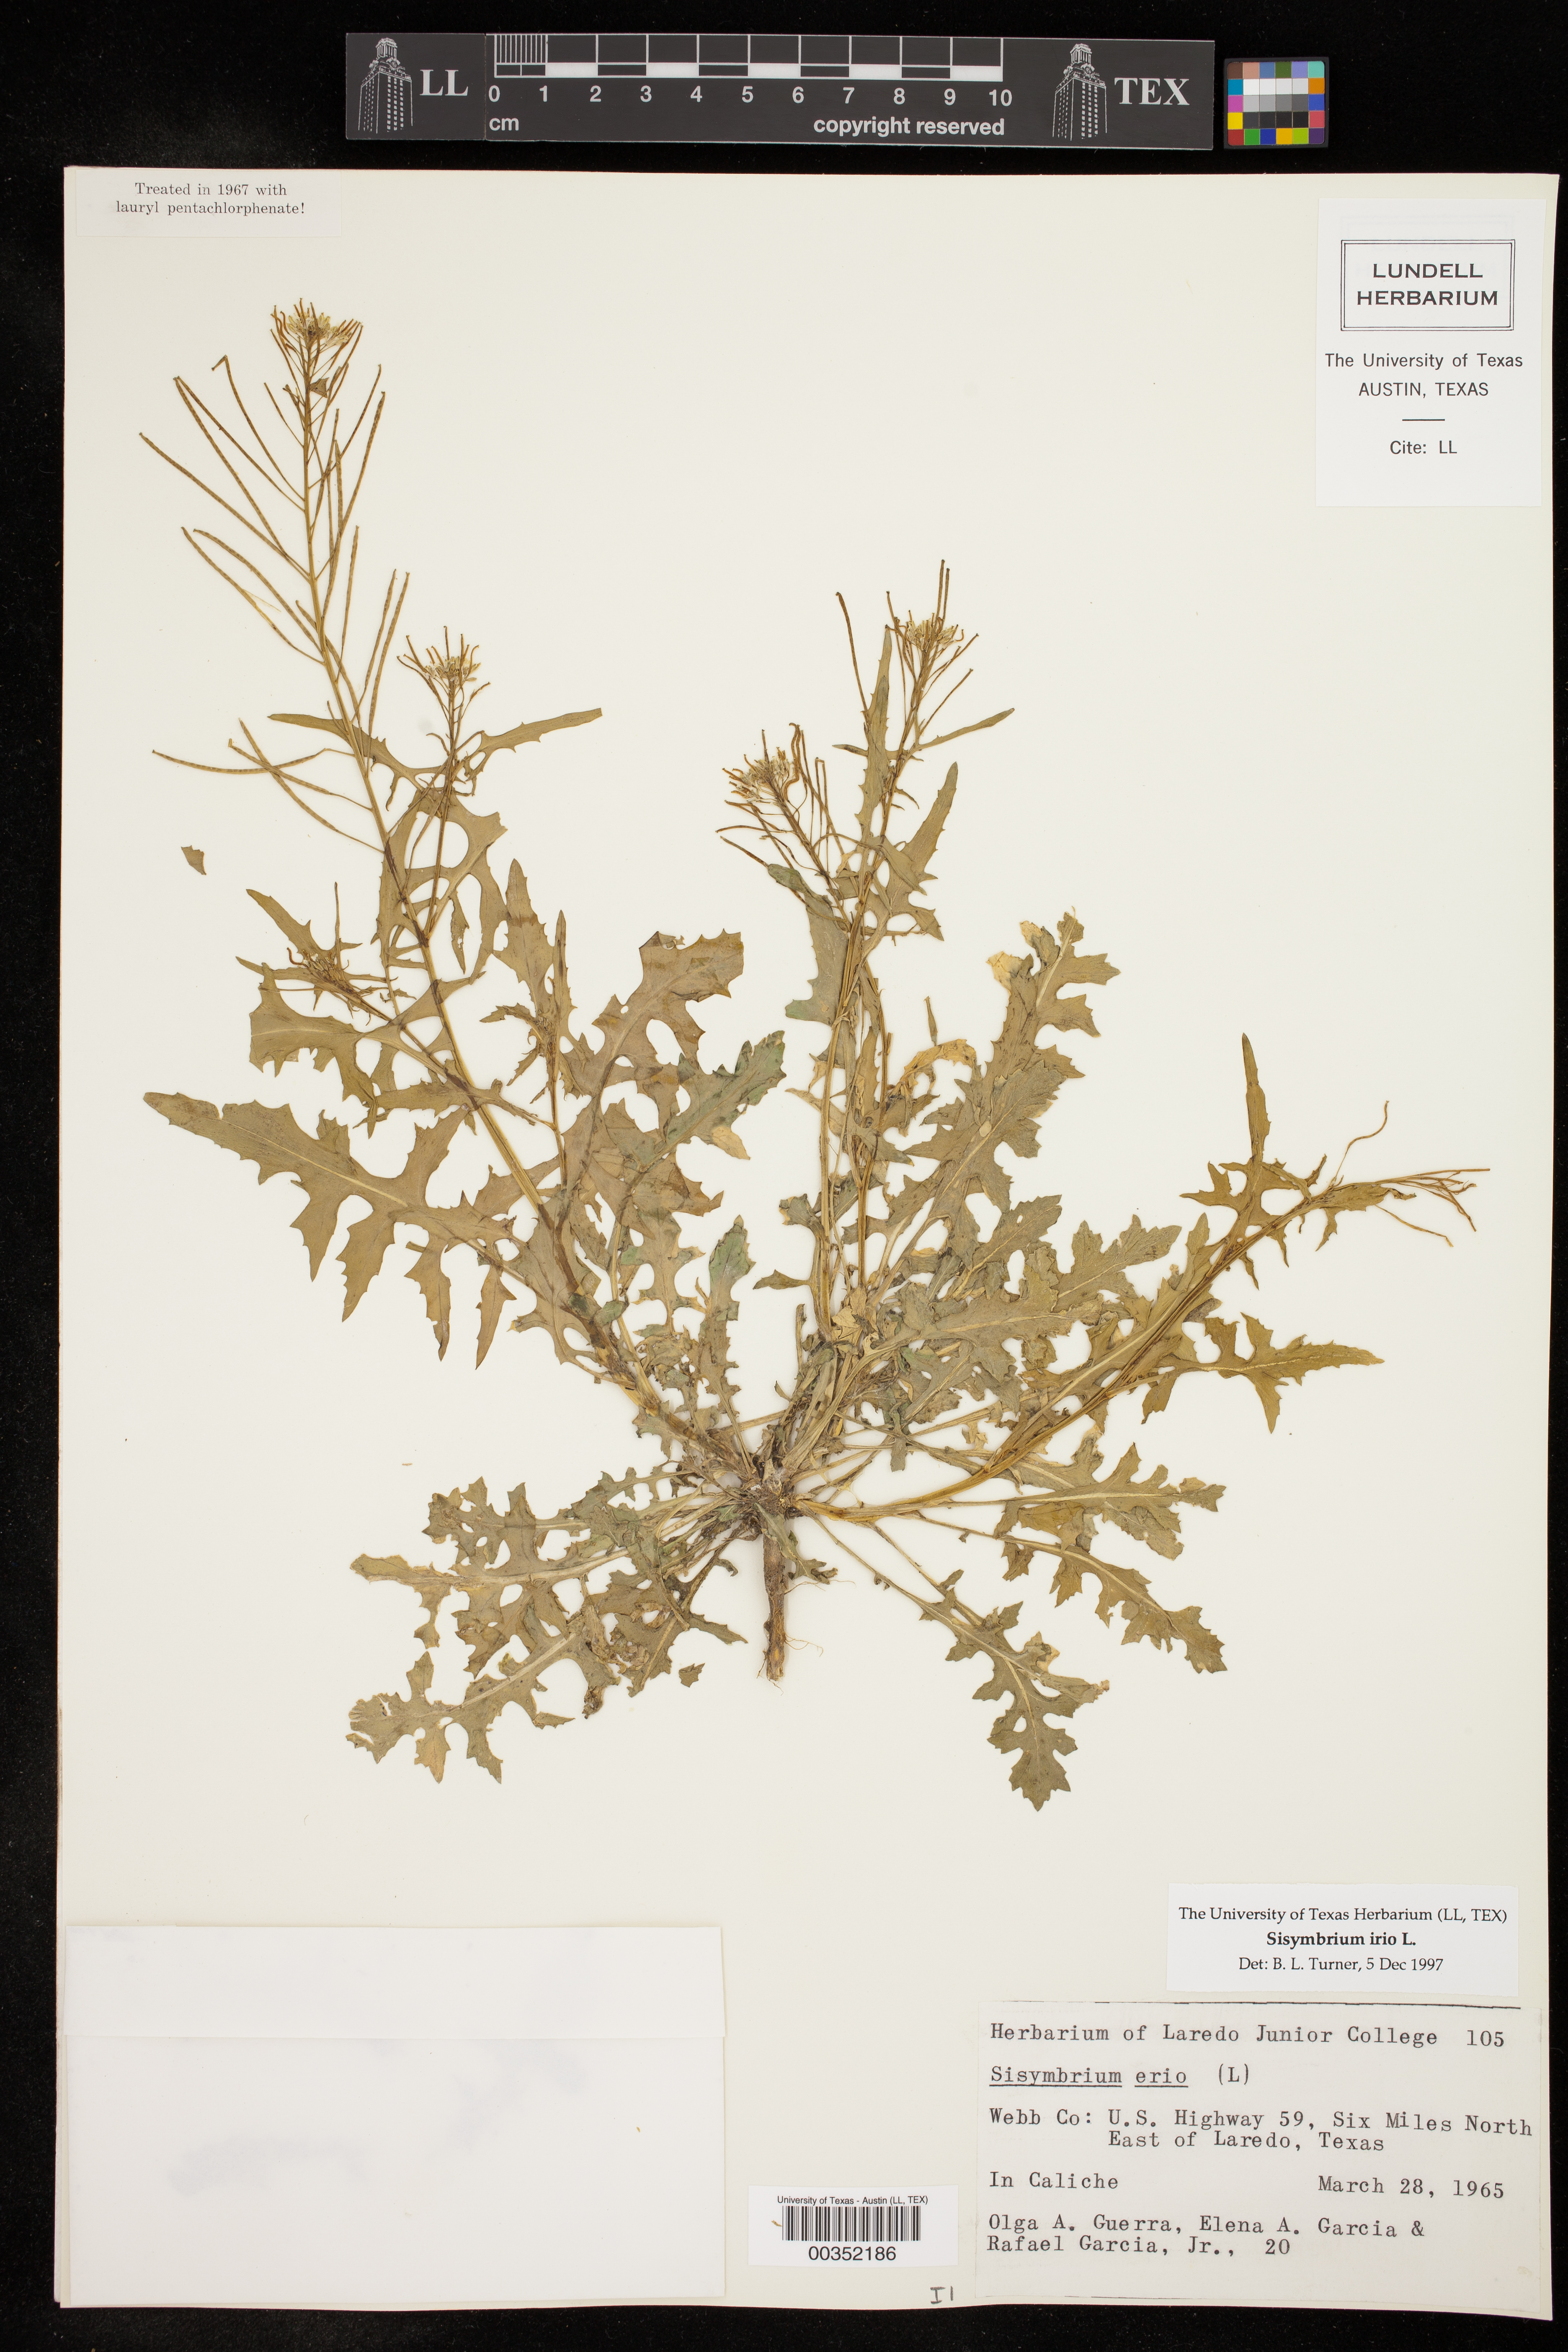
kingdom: Plantae
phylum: Tracheophyta
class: Magnoliopsida
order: Brassicales
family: Brassicaceae
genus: Sisymbrium
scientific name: Sisymbrium irio
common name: London rocket
